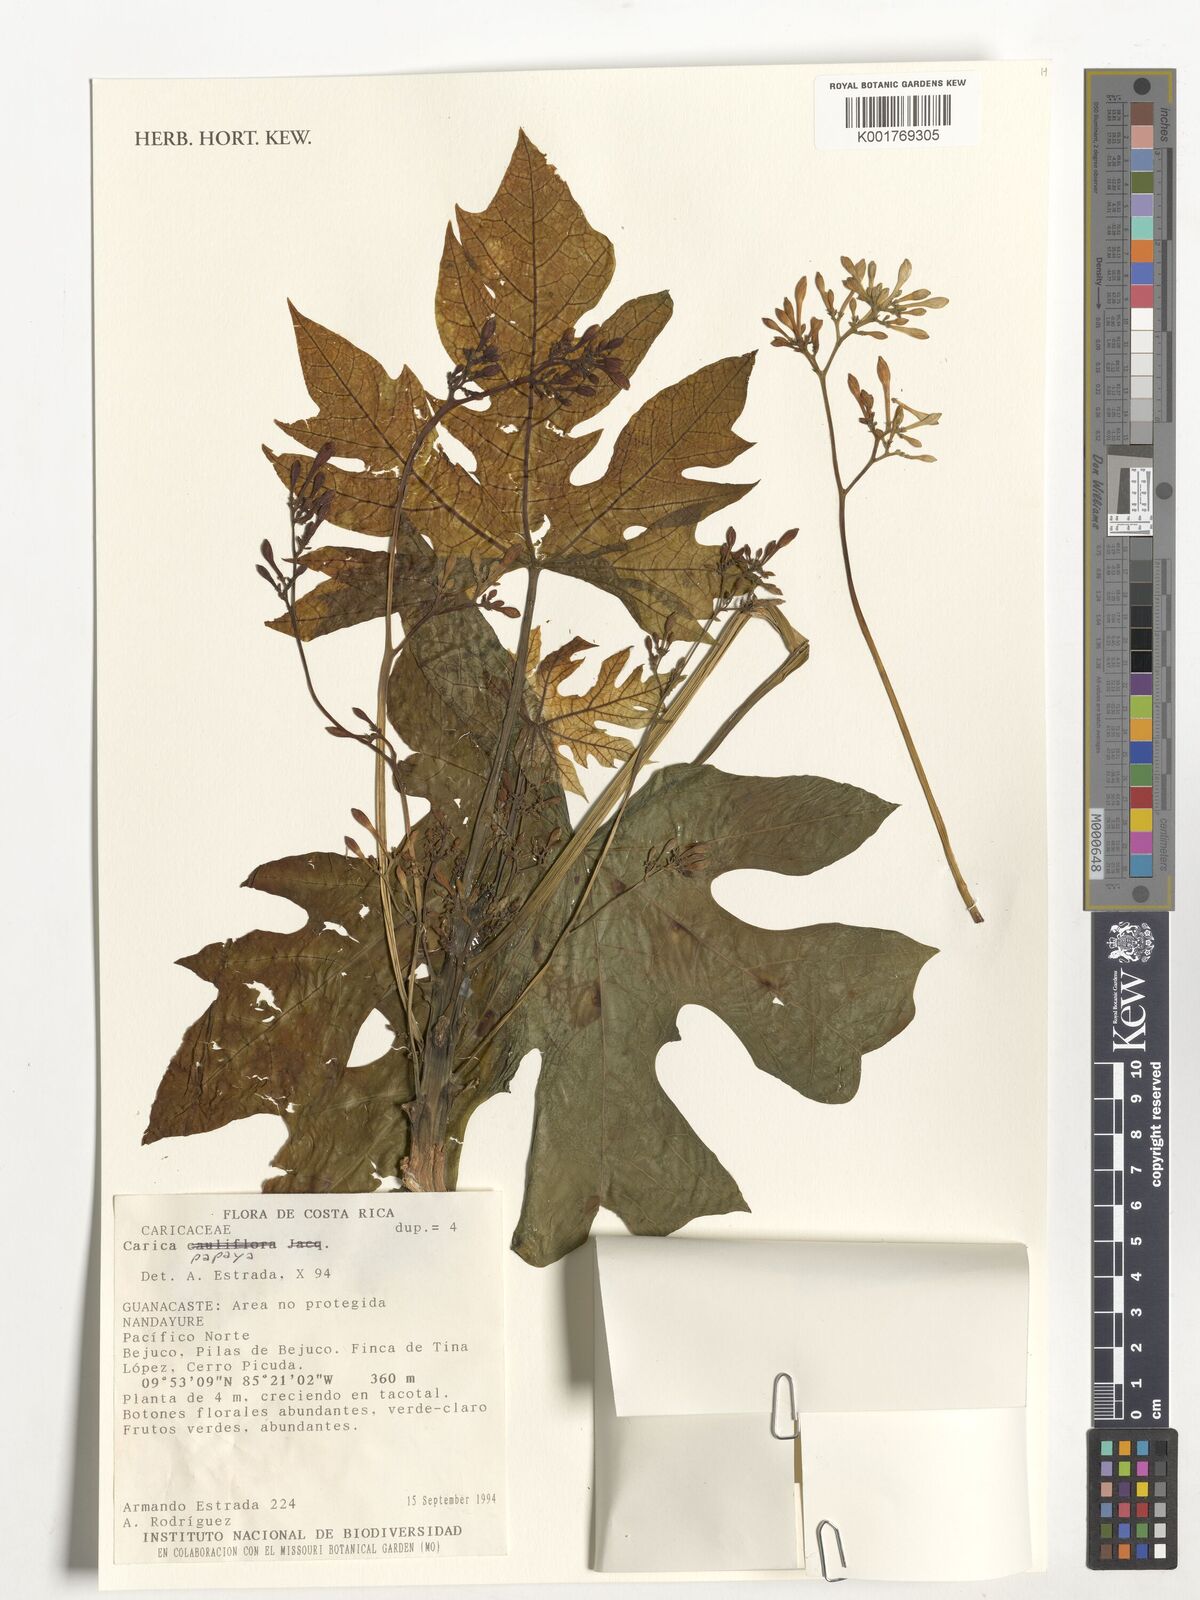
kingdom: Plantae
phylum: Tracheophyta
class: Magnoliopsida
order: Brassicales
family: Caricaceae
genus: Carica
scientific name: Carica papaya
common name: Papaya
